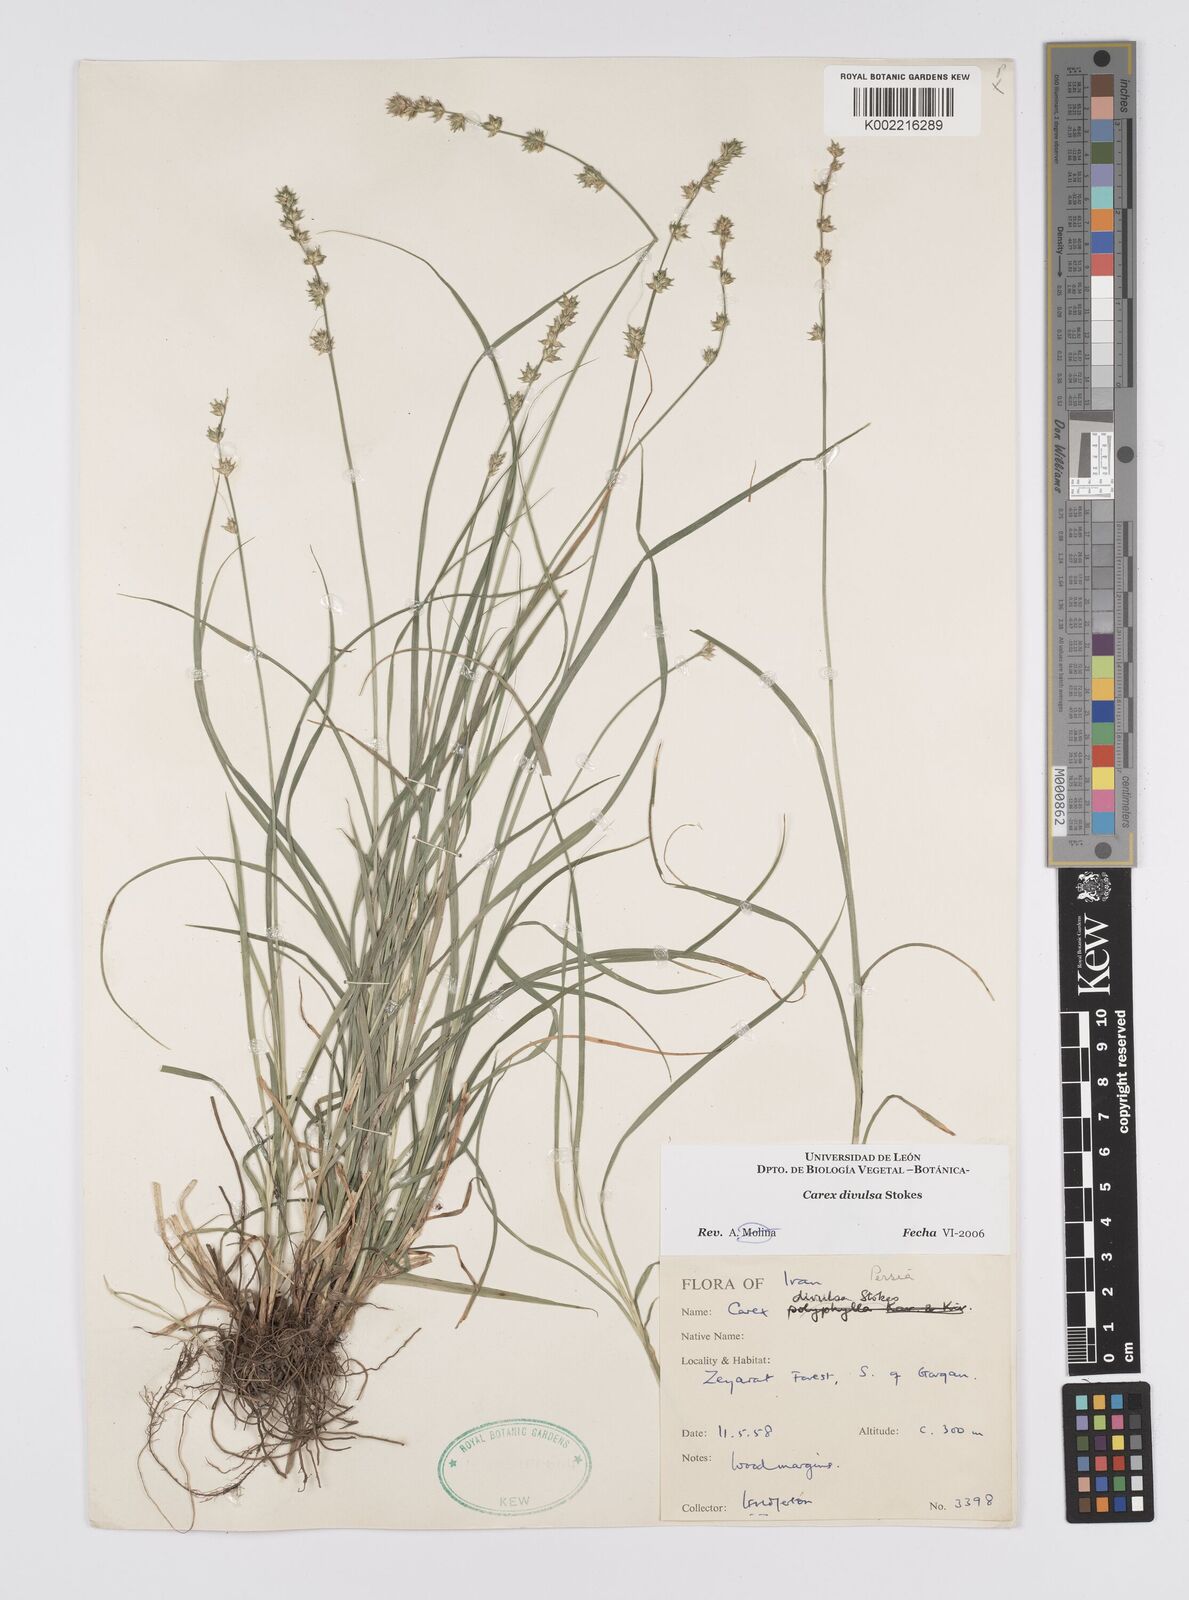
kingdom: Plantae
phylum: Tracheophyta
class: Liliopsida
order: Poales
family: Cyperaceae
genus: Carex
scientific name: Carex divulsa
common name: Grassland sedge
